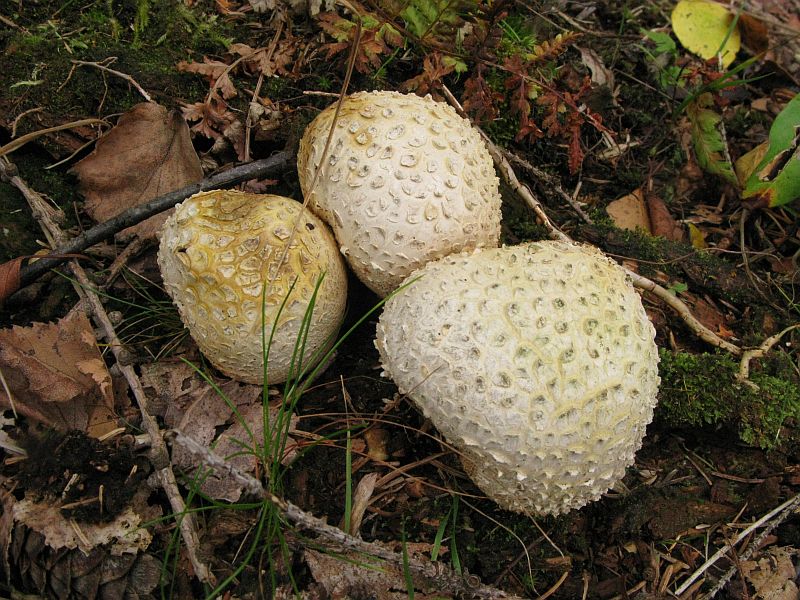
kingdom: Fungi
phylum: Basidiomycota
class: Agaricomycetes
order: Boletales
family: Sclerodermataceae
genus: Scleroderma
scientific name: Scleroderma citrinum
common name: almindelig bruskbold
